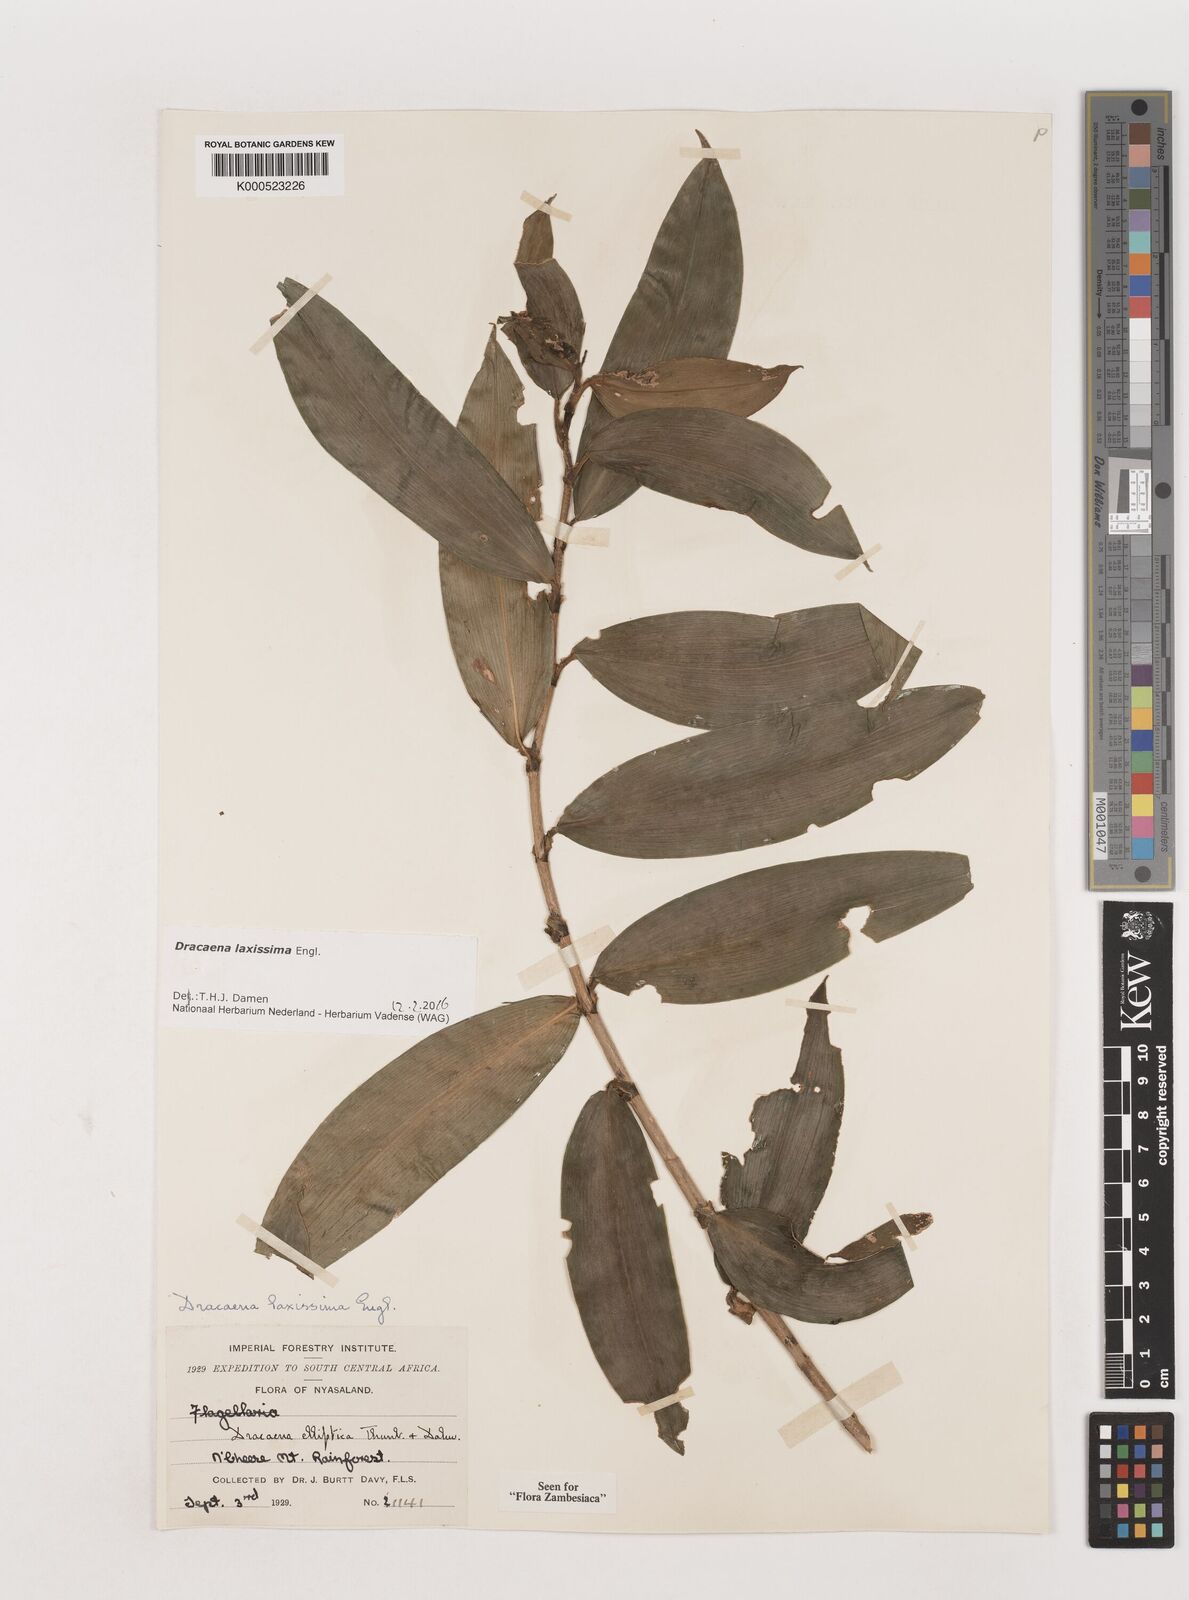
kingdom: Plantae
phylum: Tracheophyta
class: Liliopsida
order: Asparagales
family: Asparagaceae
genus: Dracaena
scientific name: Dracaena laxissima
